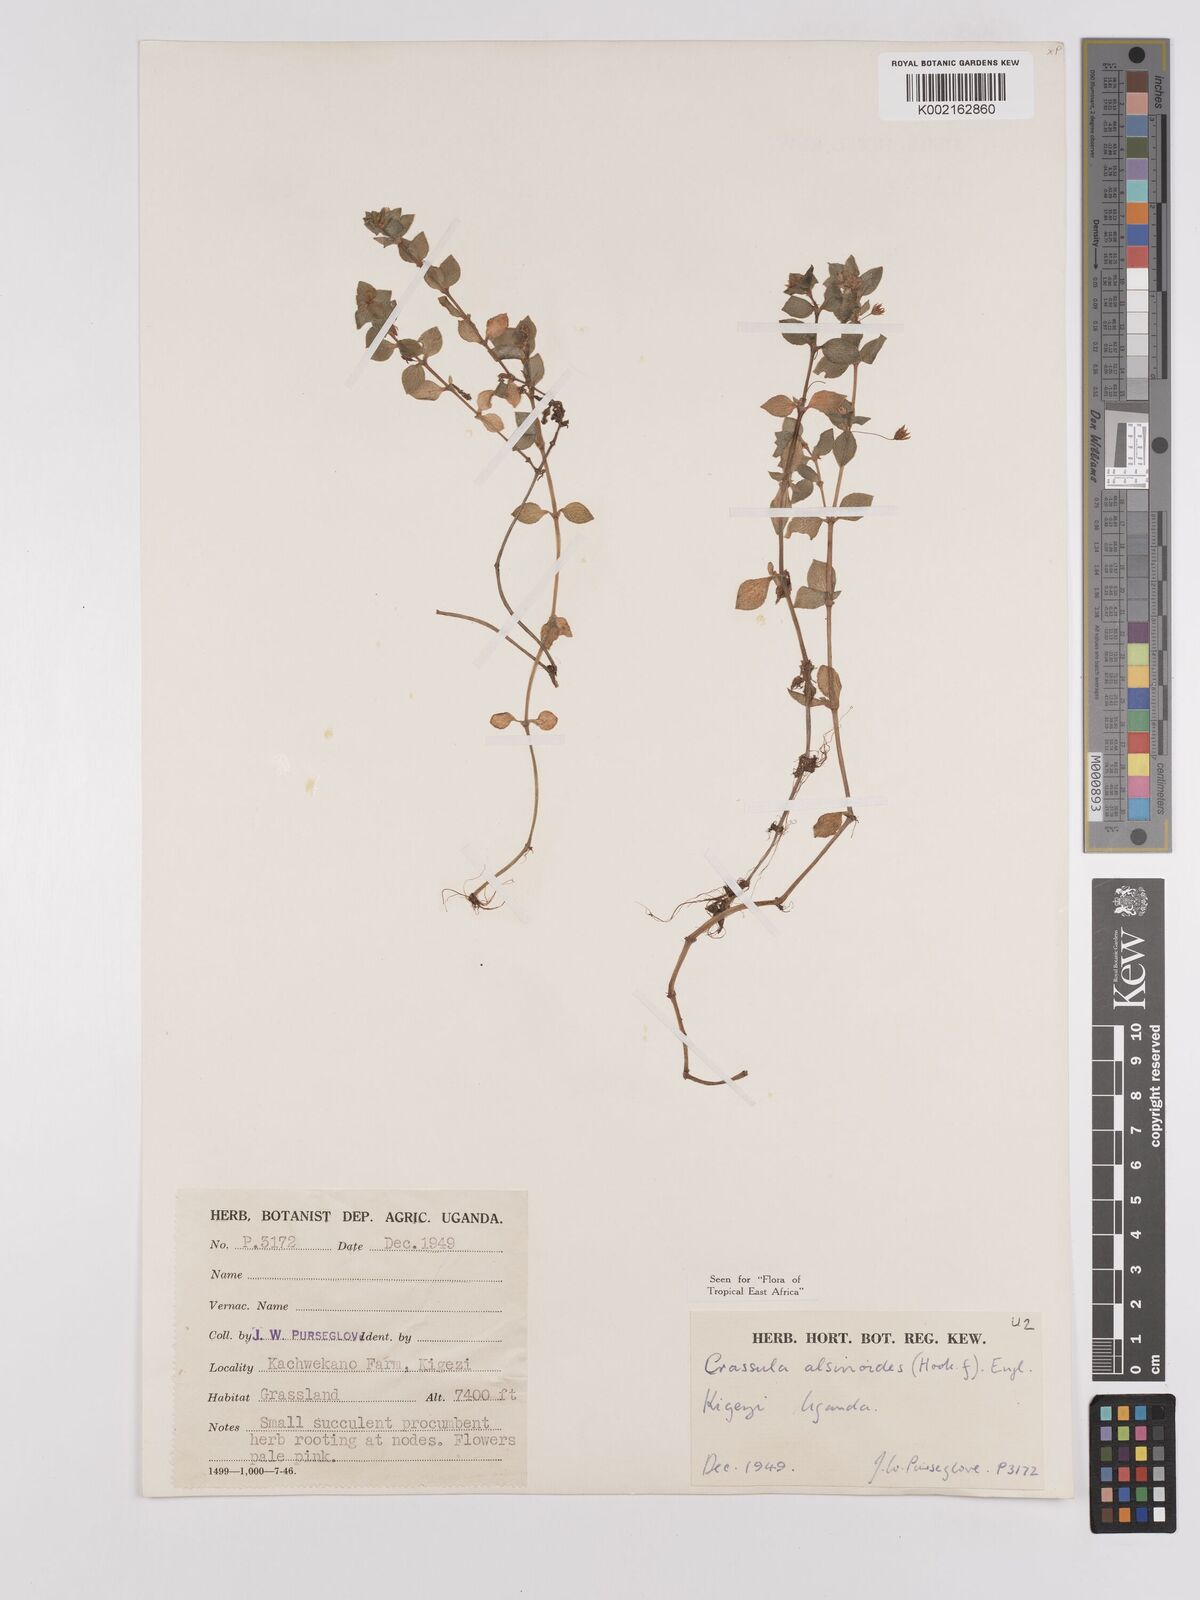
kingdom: Plantae
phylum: Tracheophyta
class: Magnoliopsida
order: Saxifragales
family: Crassulaceae
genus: Crassula
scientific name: Crassula alsinoides
